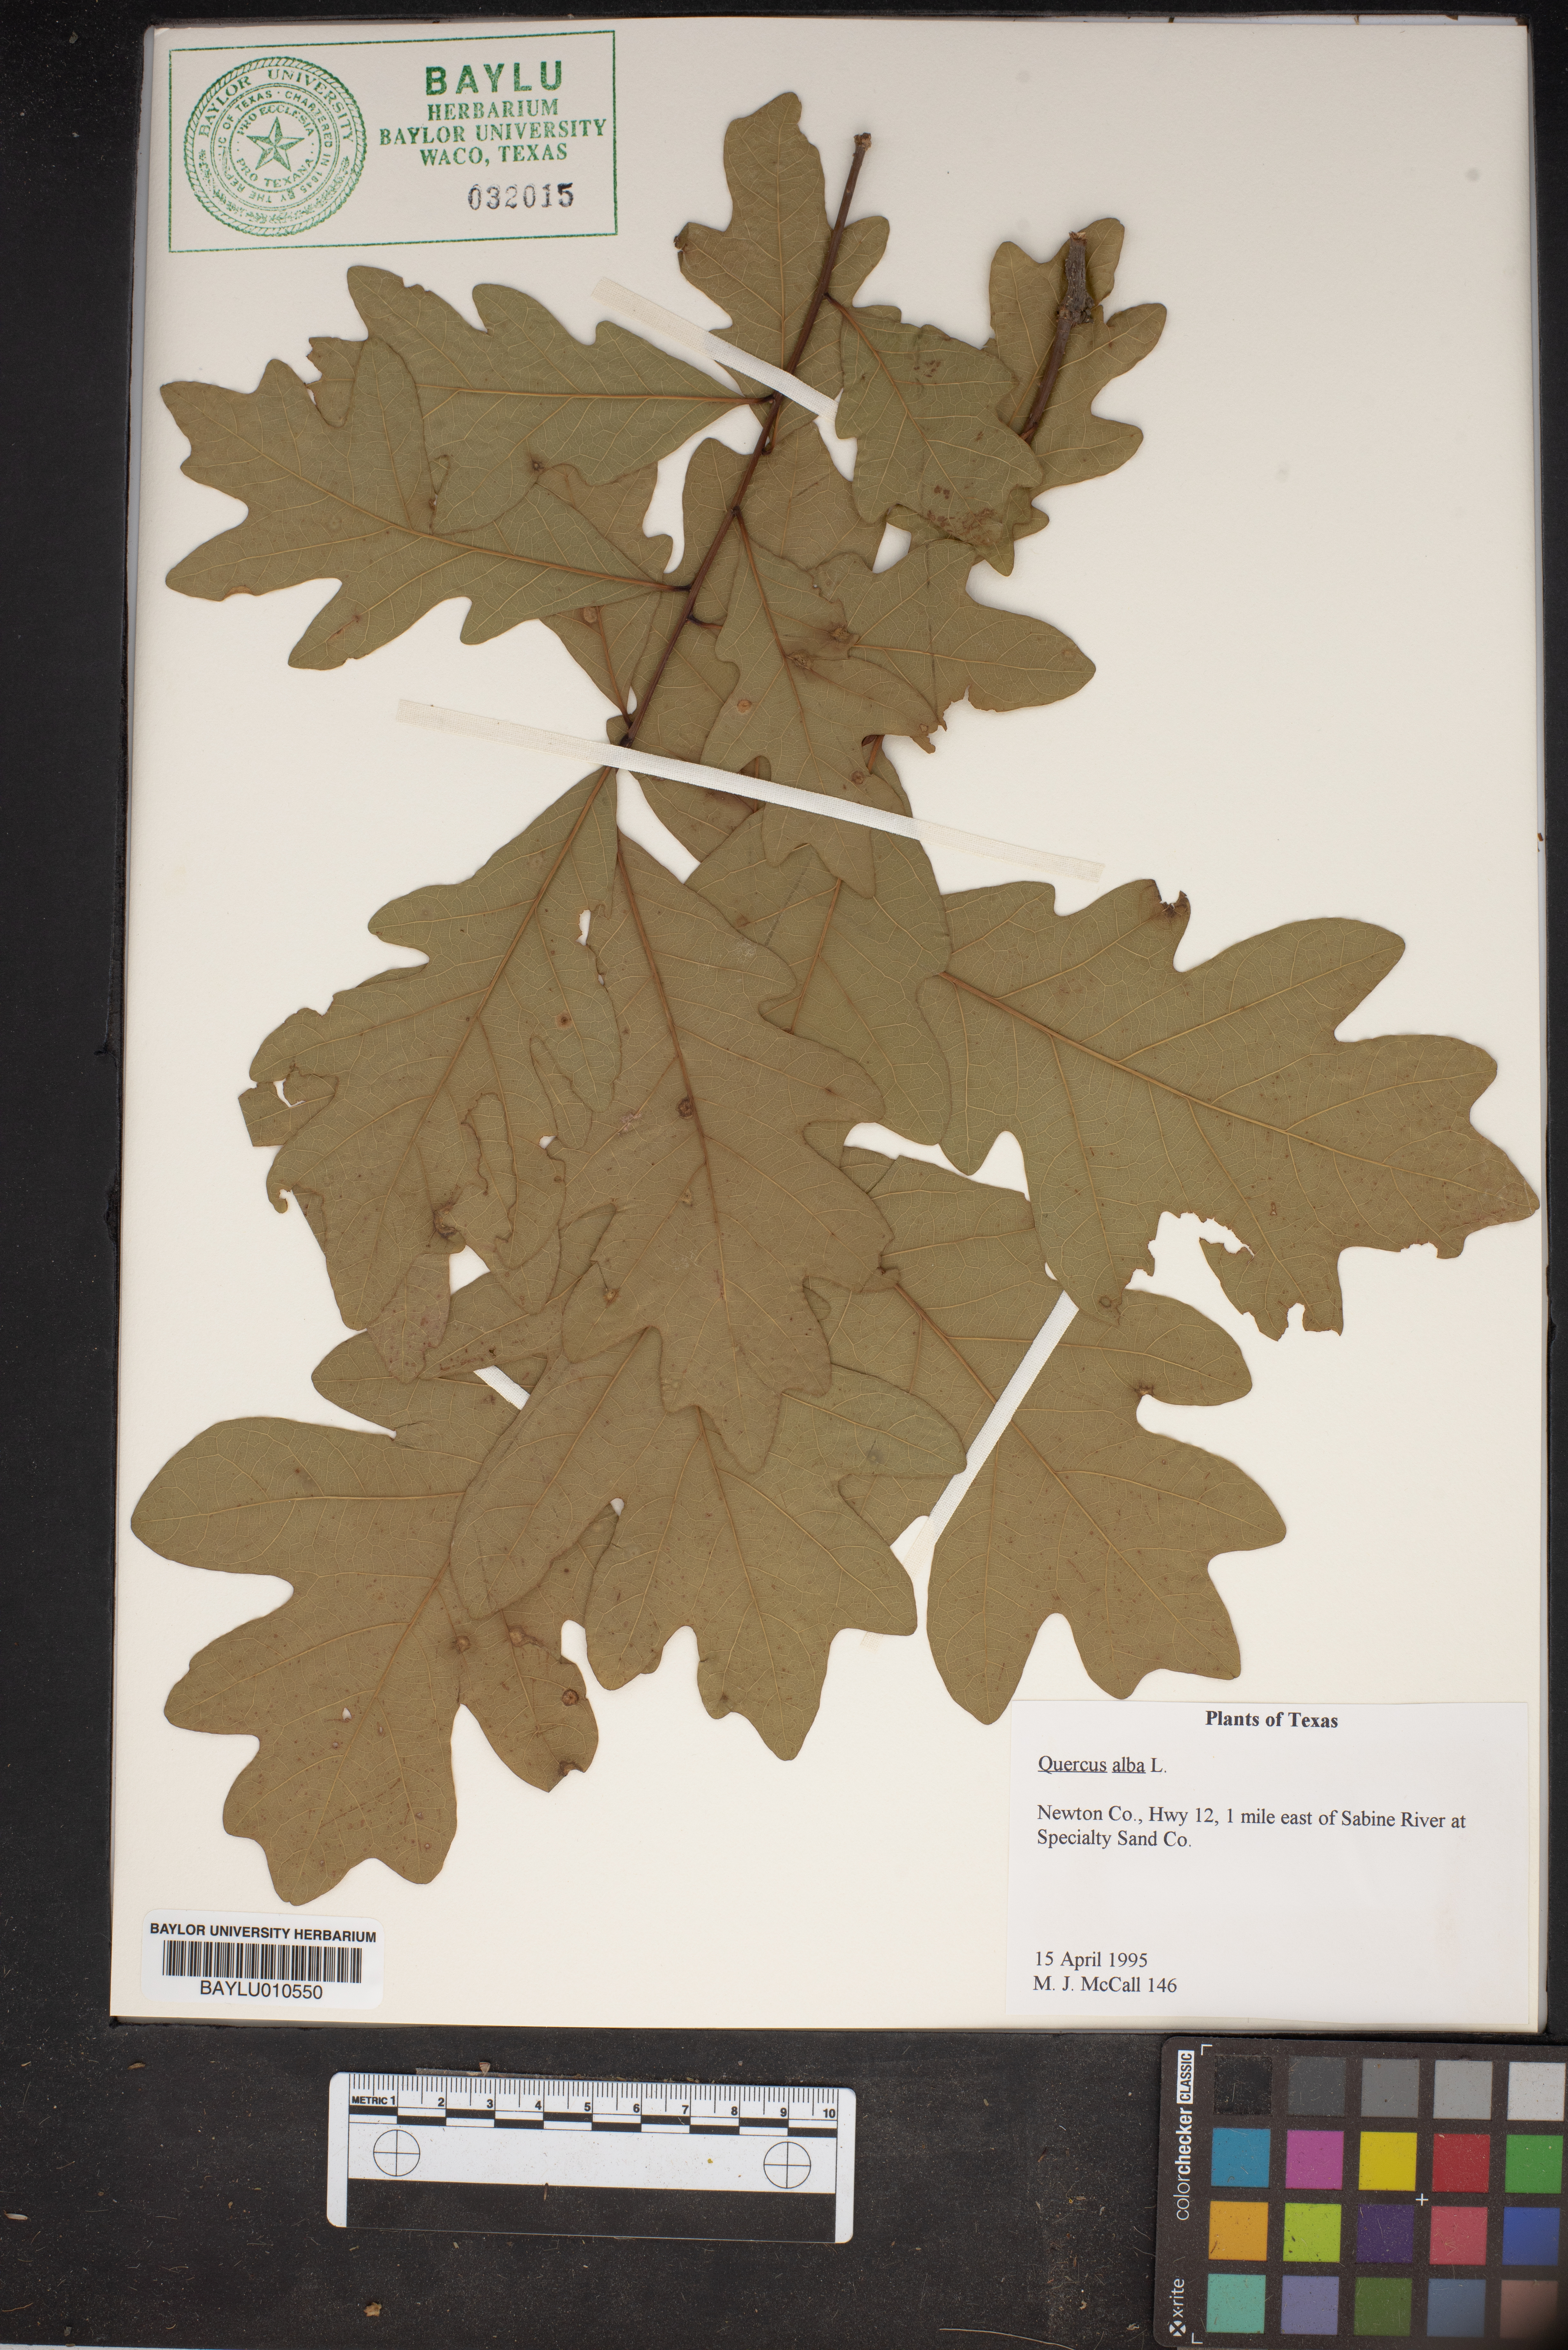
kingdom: Plantae
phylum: Tracheophyta
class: Magnoliopsida
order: Fagales
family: Fagaceae
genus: Quercus
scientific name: Quercus alba
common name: White oak
